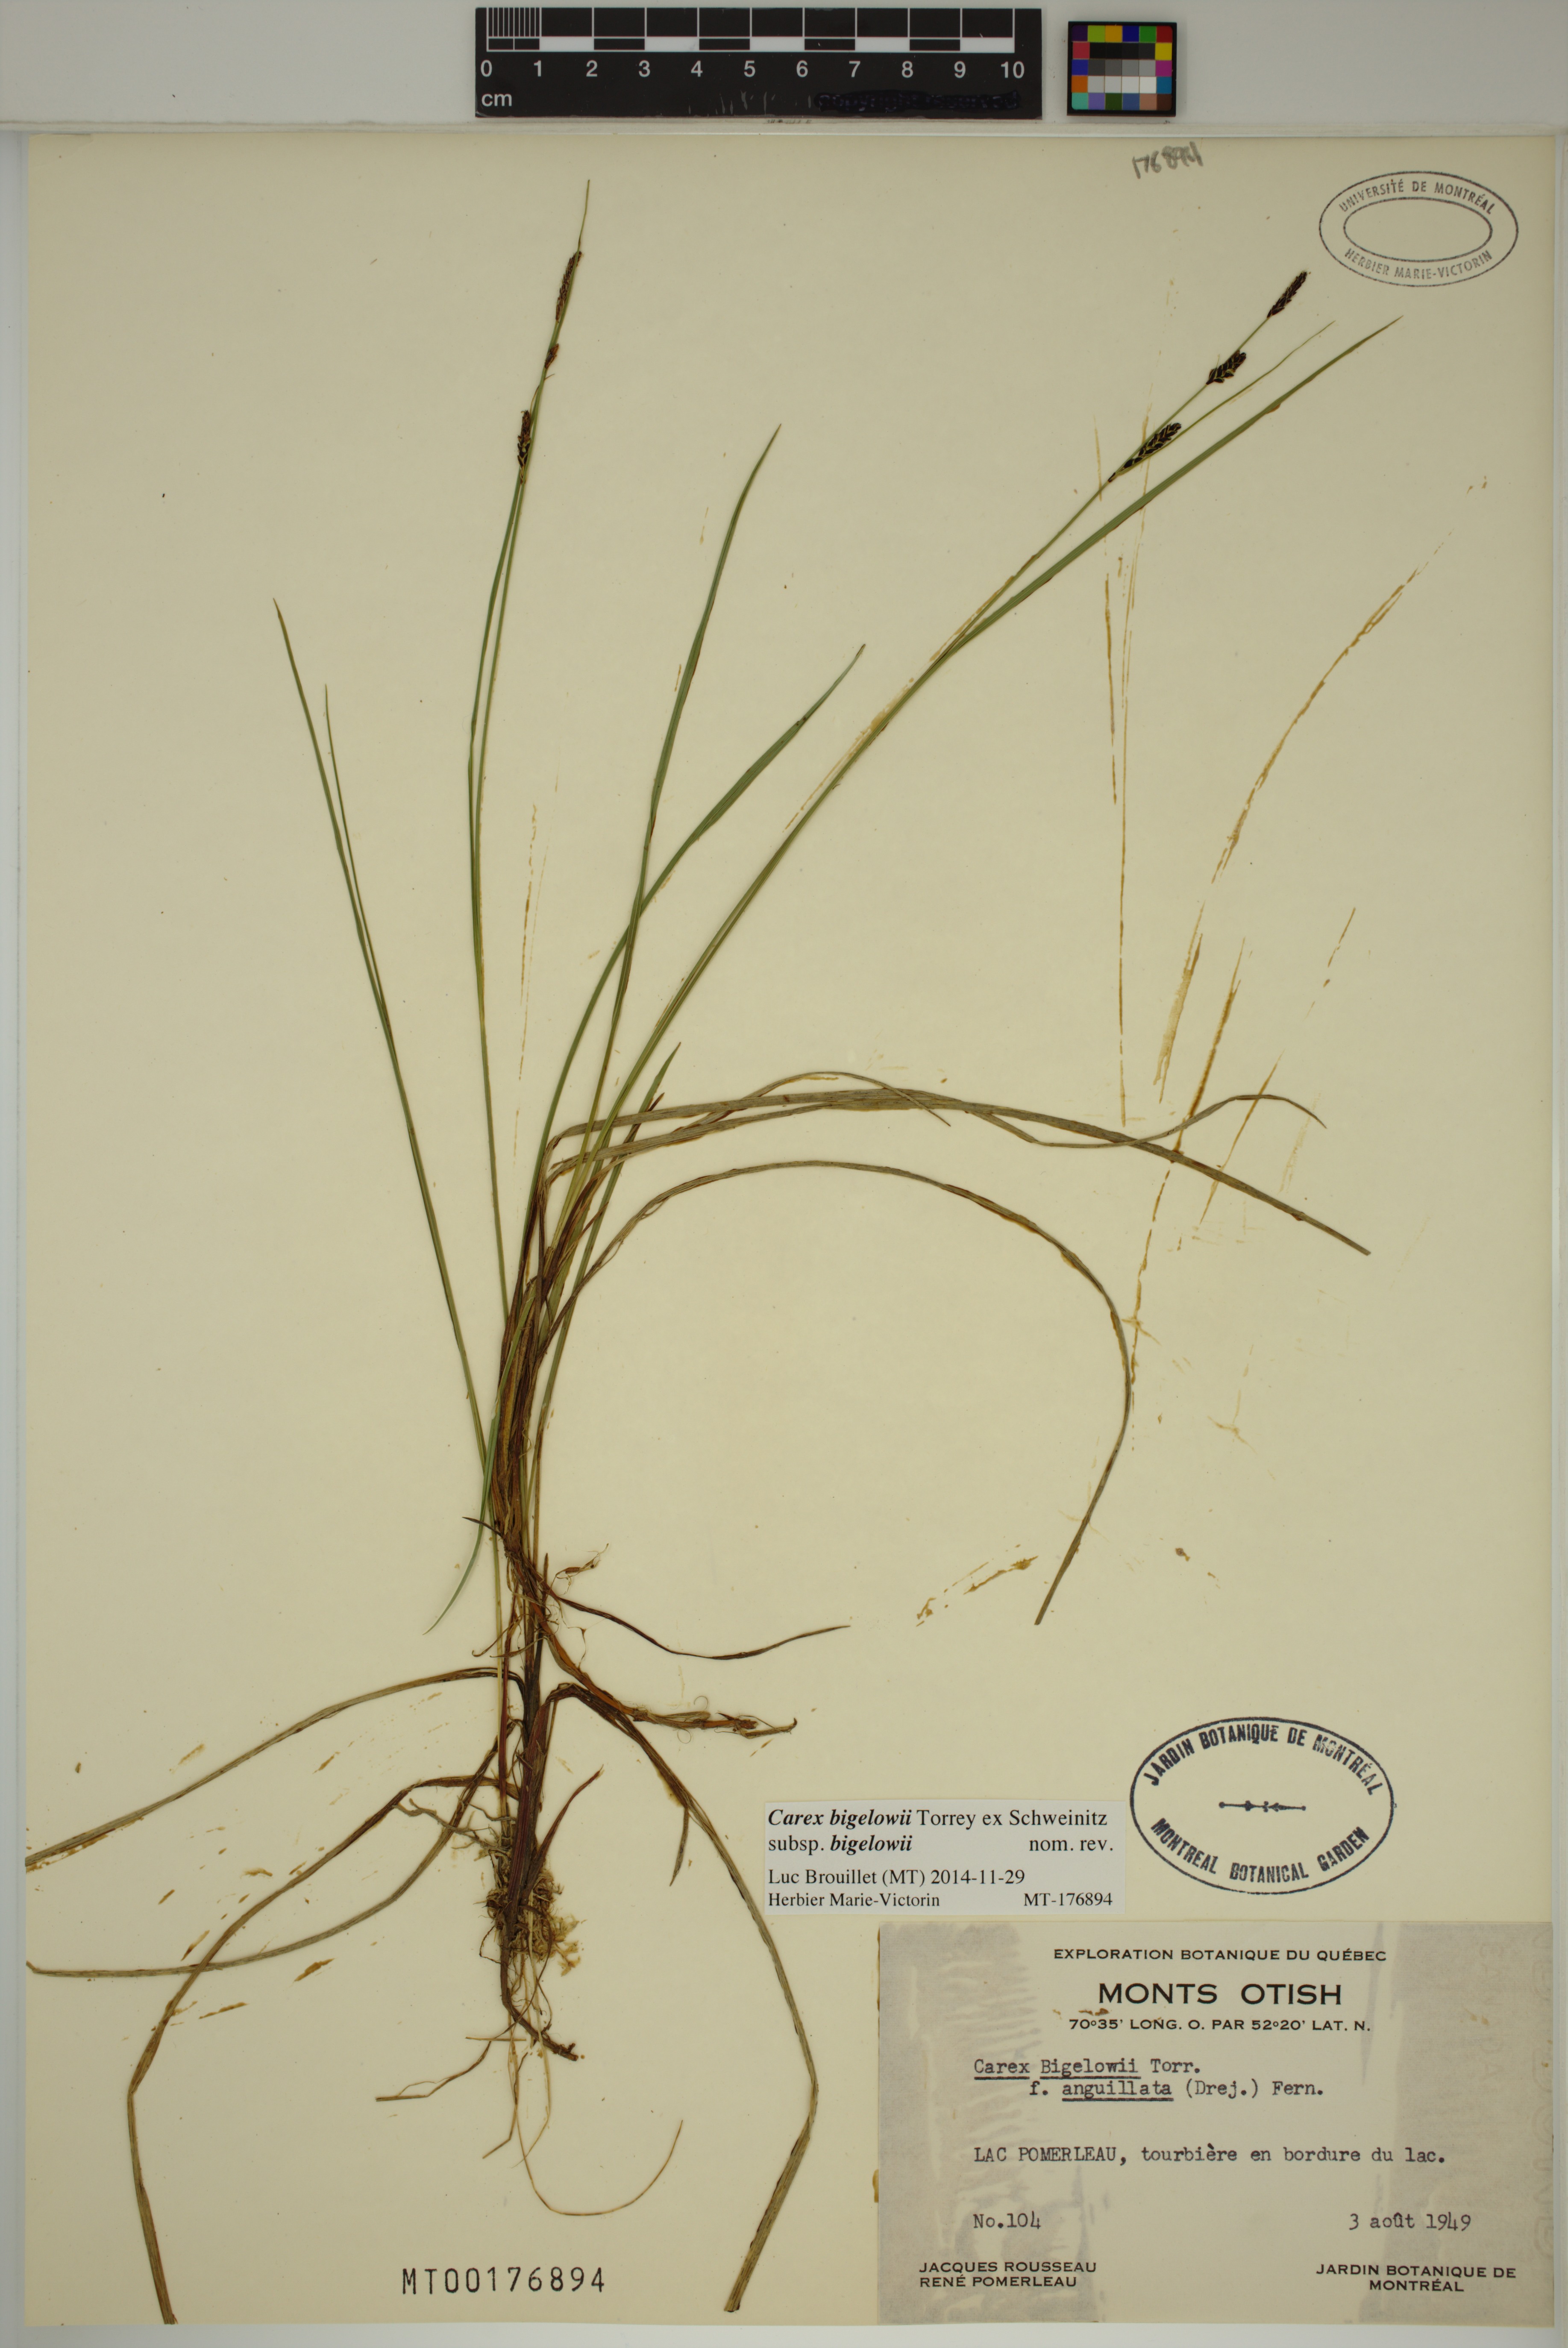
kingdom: Plantae
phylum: Tracheophyta
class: Liliopsida
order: Poales
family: Cyperaceae
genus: Carex
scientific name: Carex bigelowii
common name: Stiff sedge
